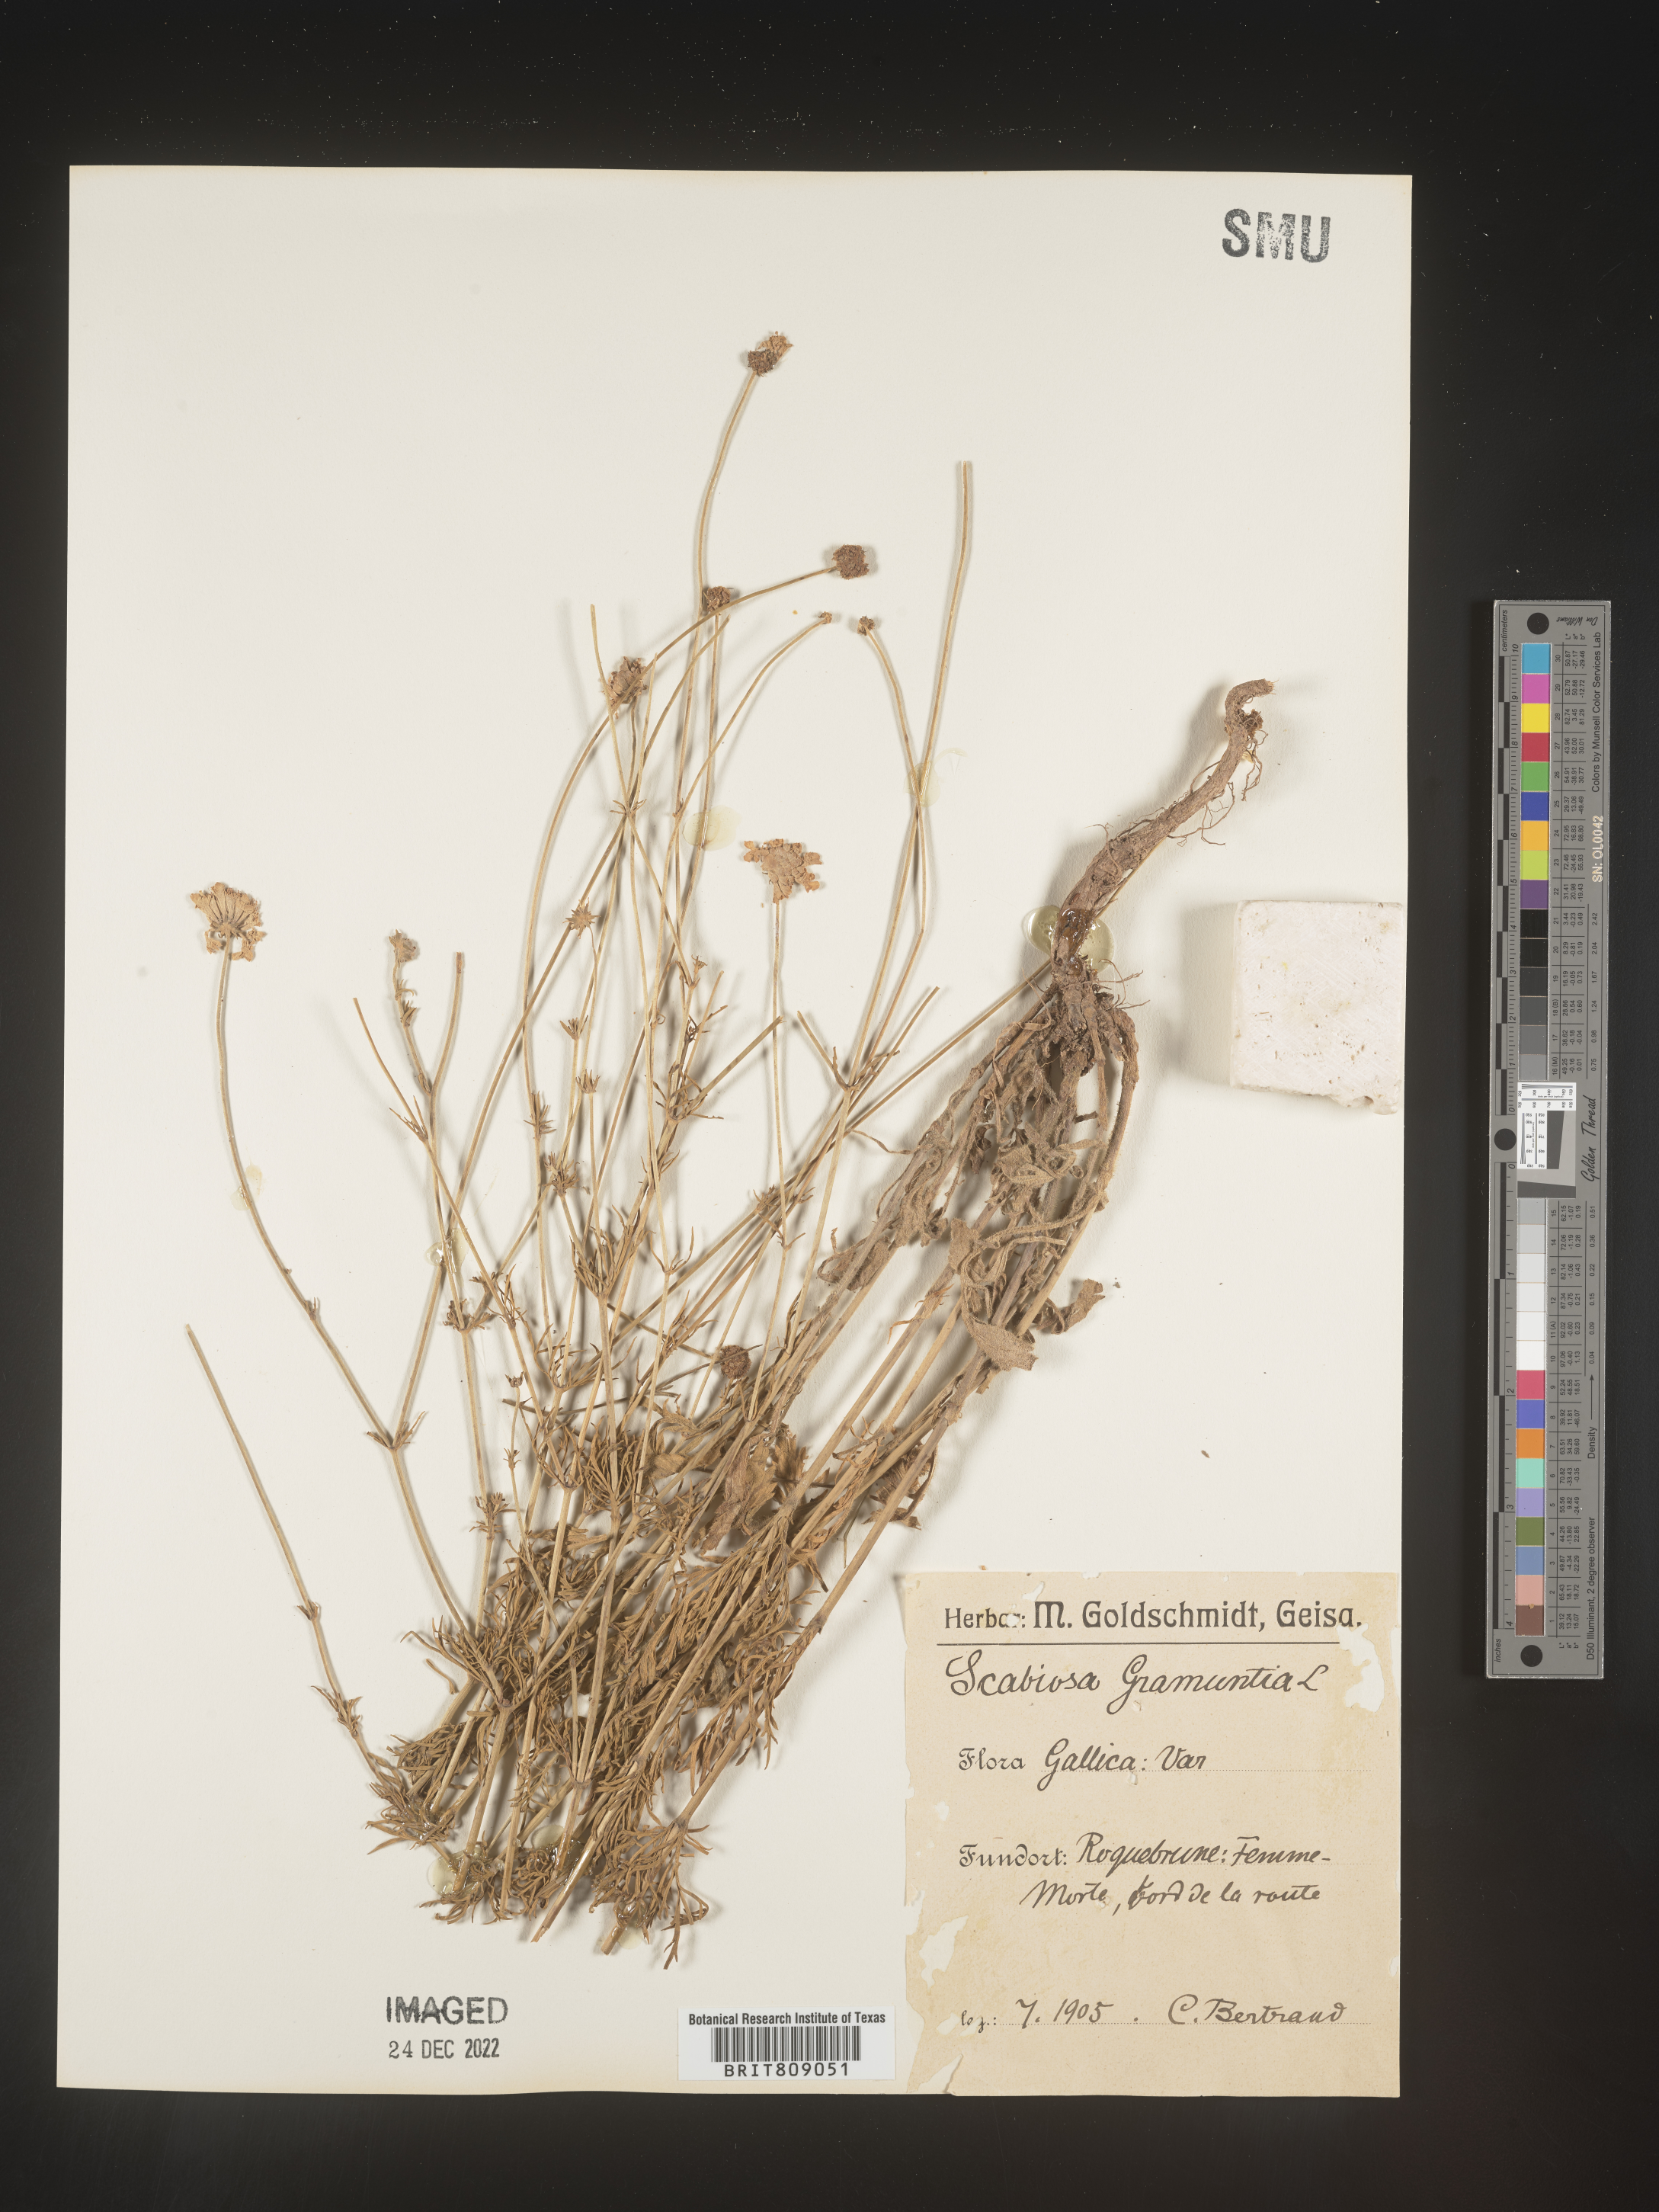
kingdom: Plantae
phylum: Tracheophyta
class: Magnoliopsida
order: Dipsacales
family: Caprifoliaceae
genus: Scabiosa
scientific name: Scabiosa
